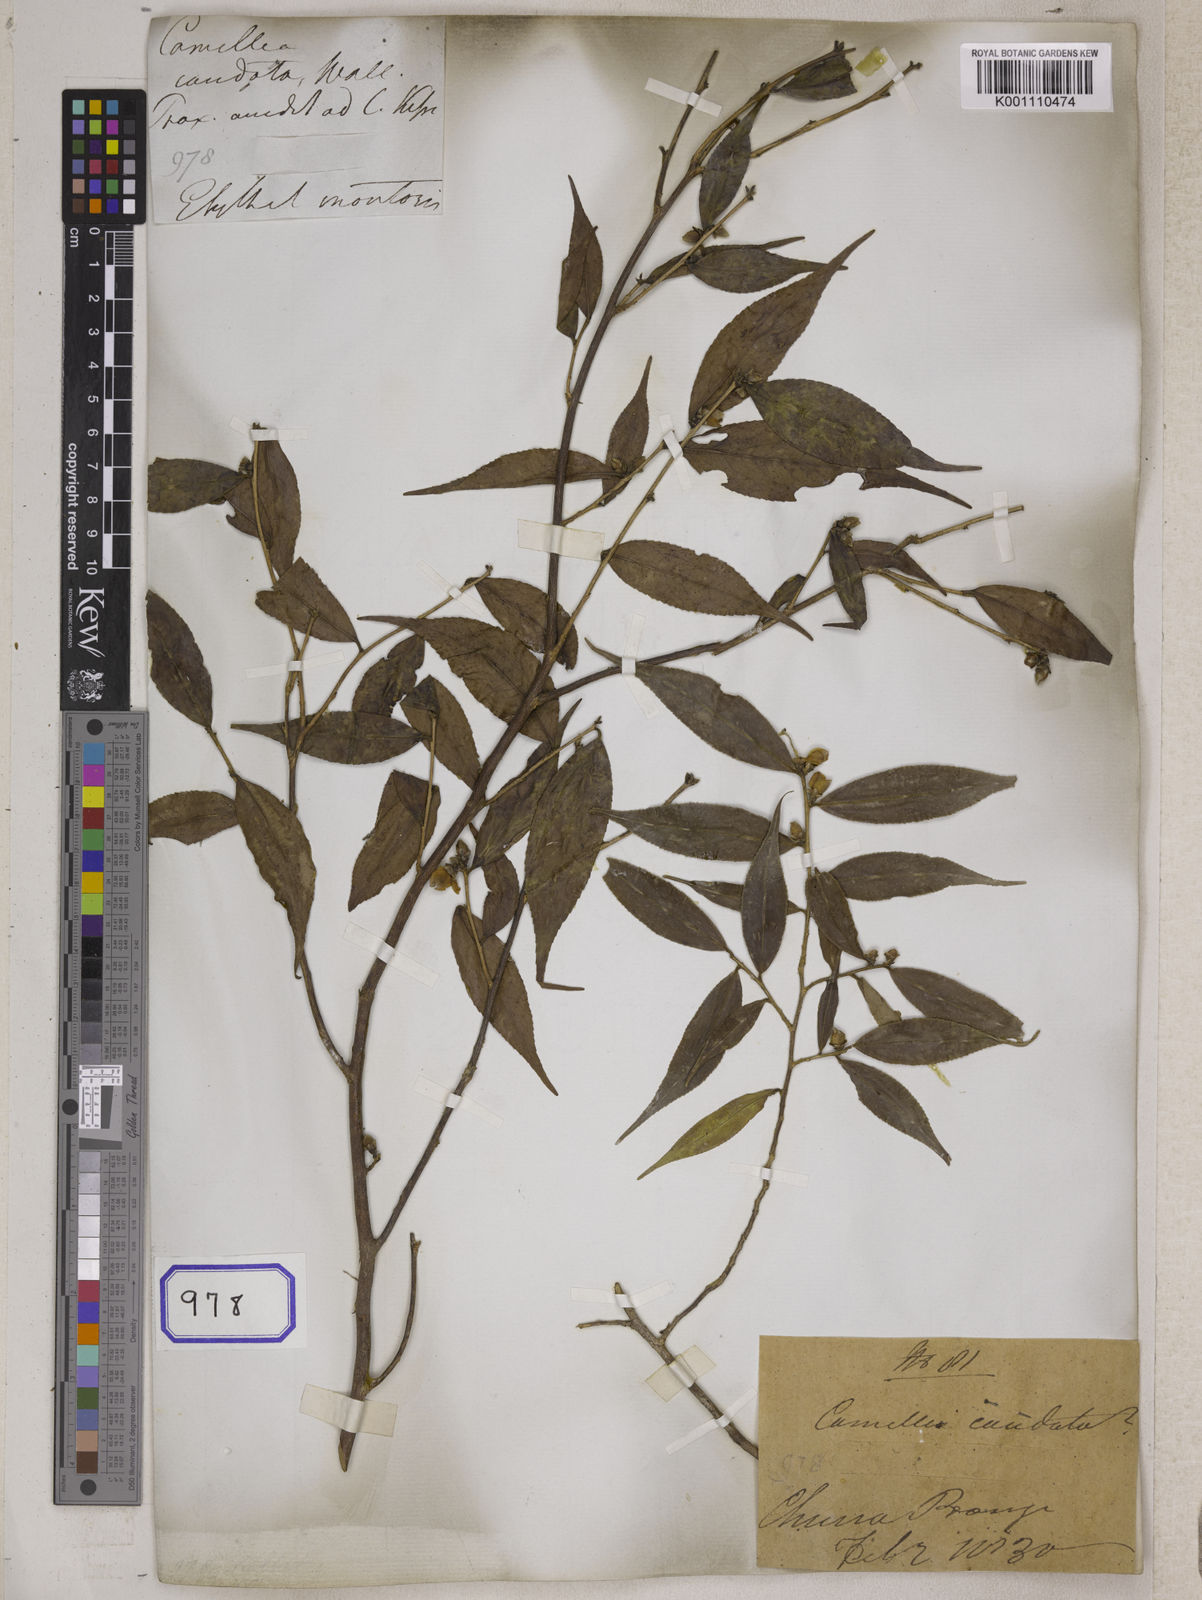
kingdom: Plantae
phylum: Tracheophyta
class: Magnoliopsida
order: Ericales
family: Theaceae
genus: Camellia
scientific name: Camellia caudata
